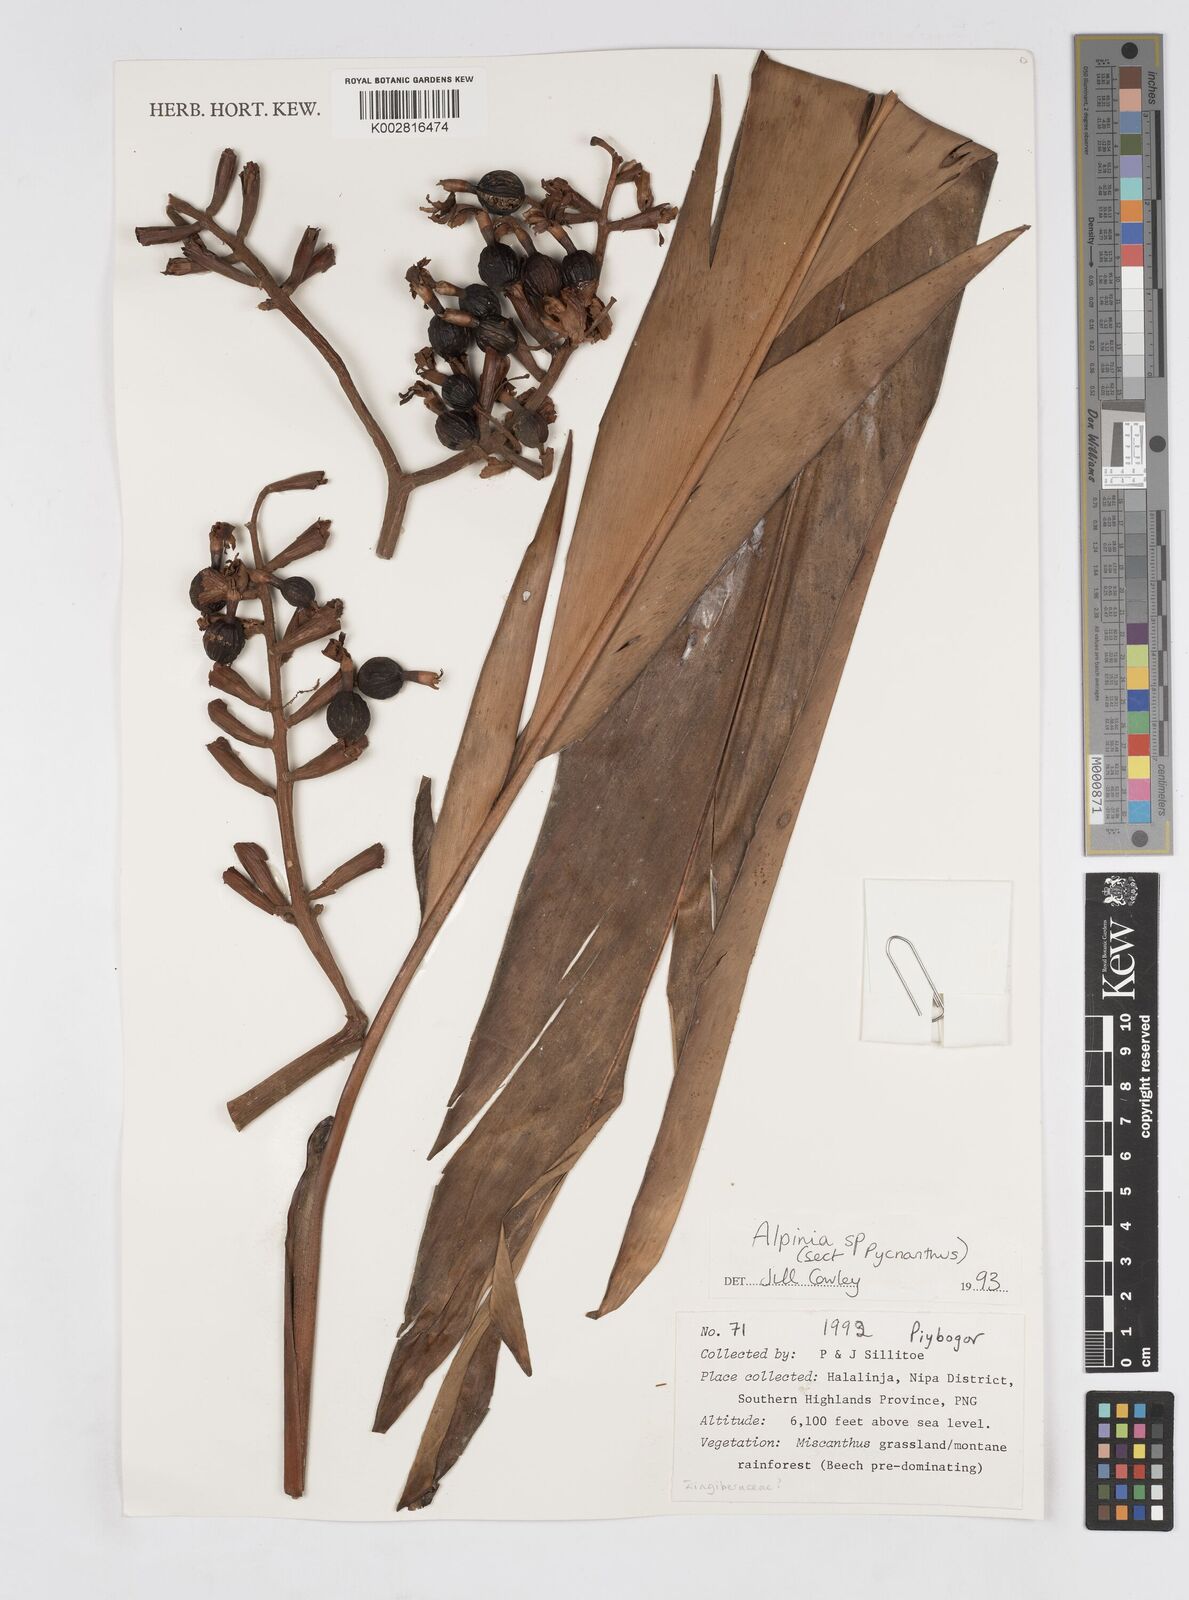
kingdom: Plantae
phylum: Tracheophyta
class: Liliopsida
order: Zingiberales
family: Zingiberaceae
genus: Alpinia
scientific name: Alpinia
